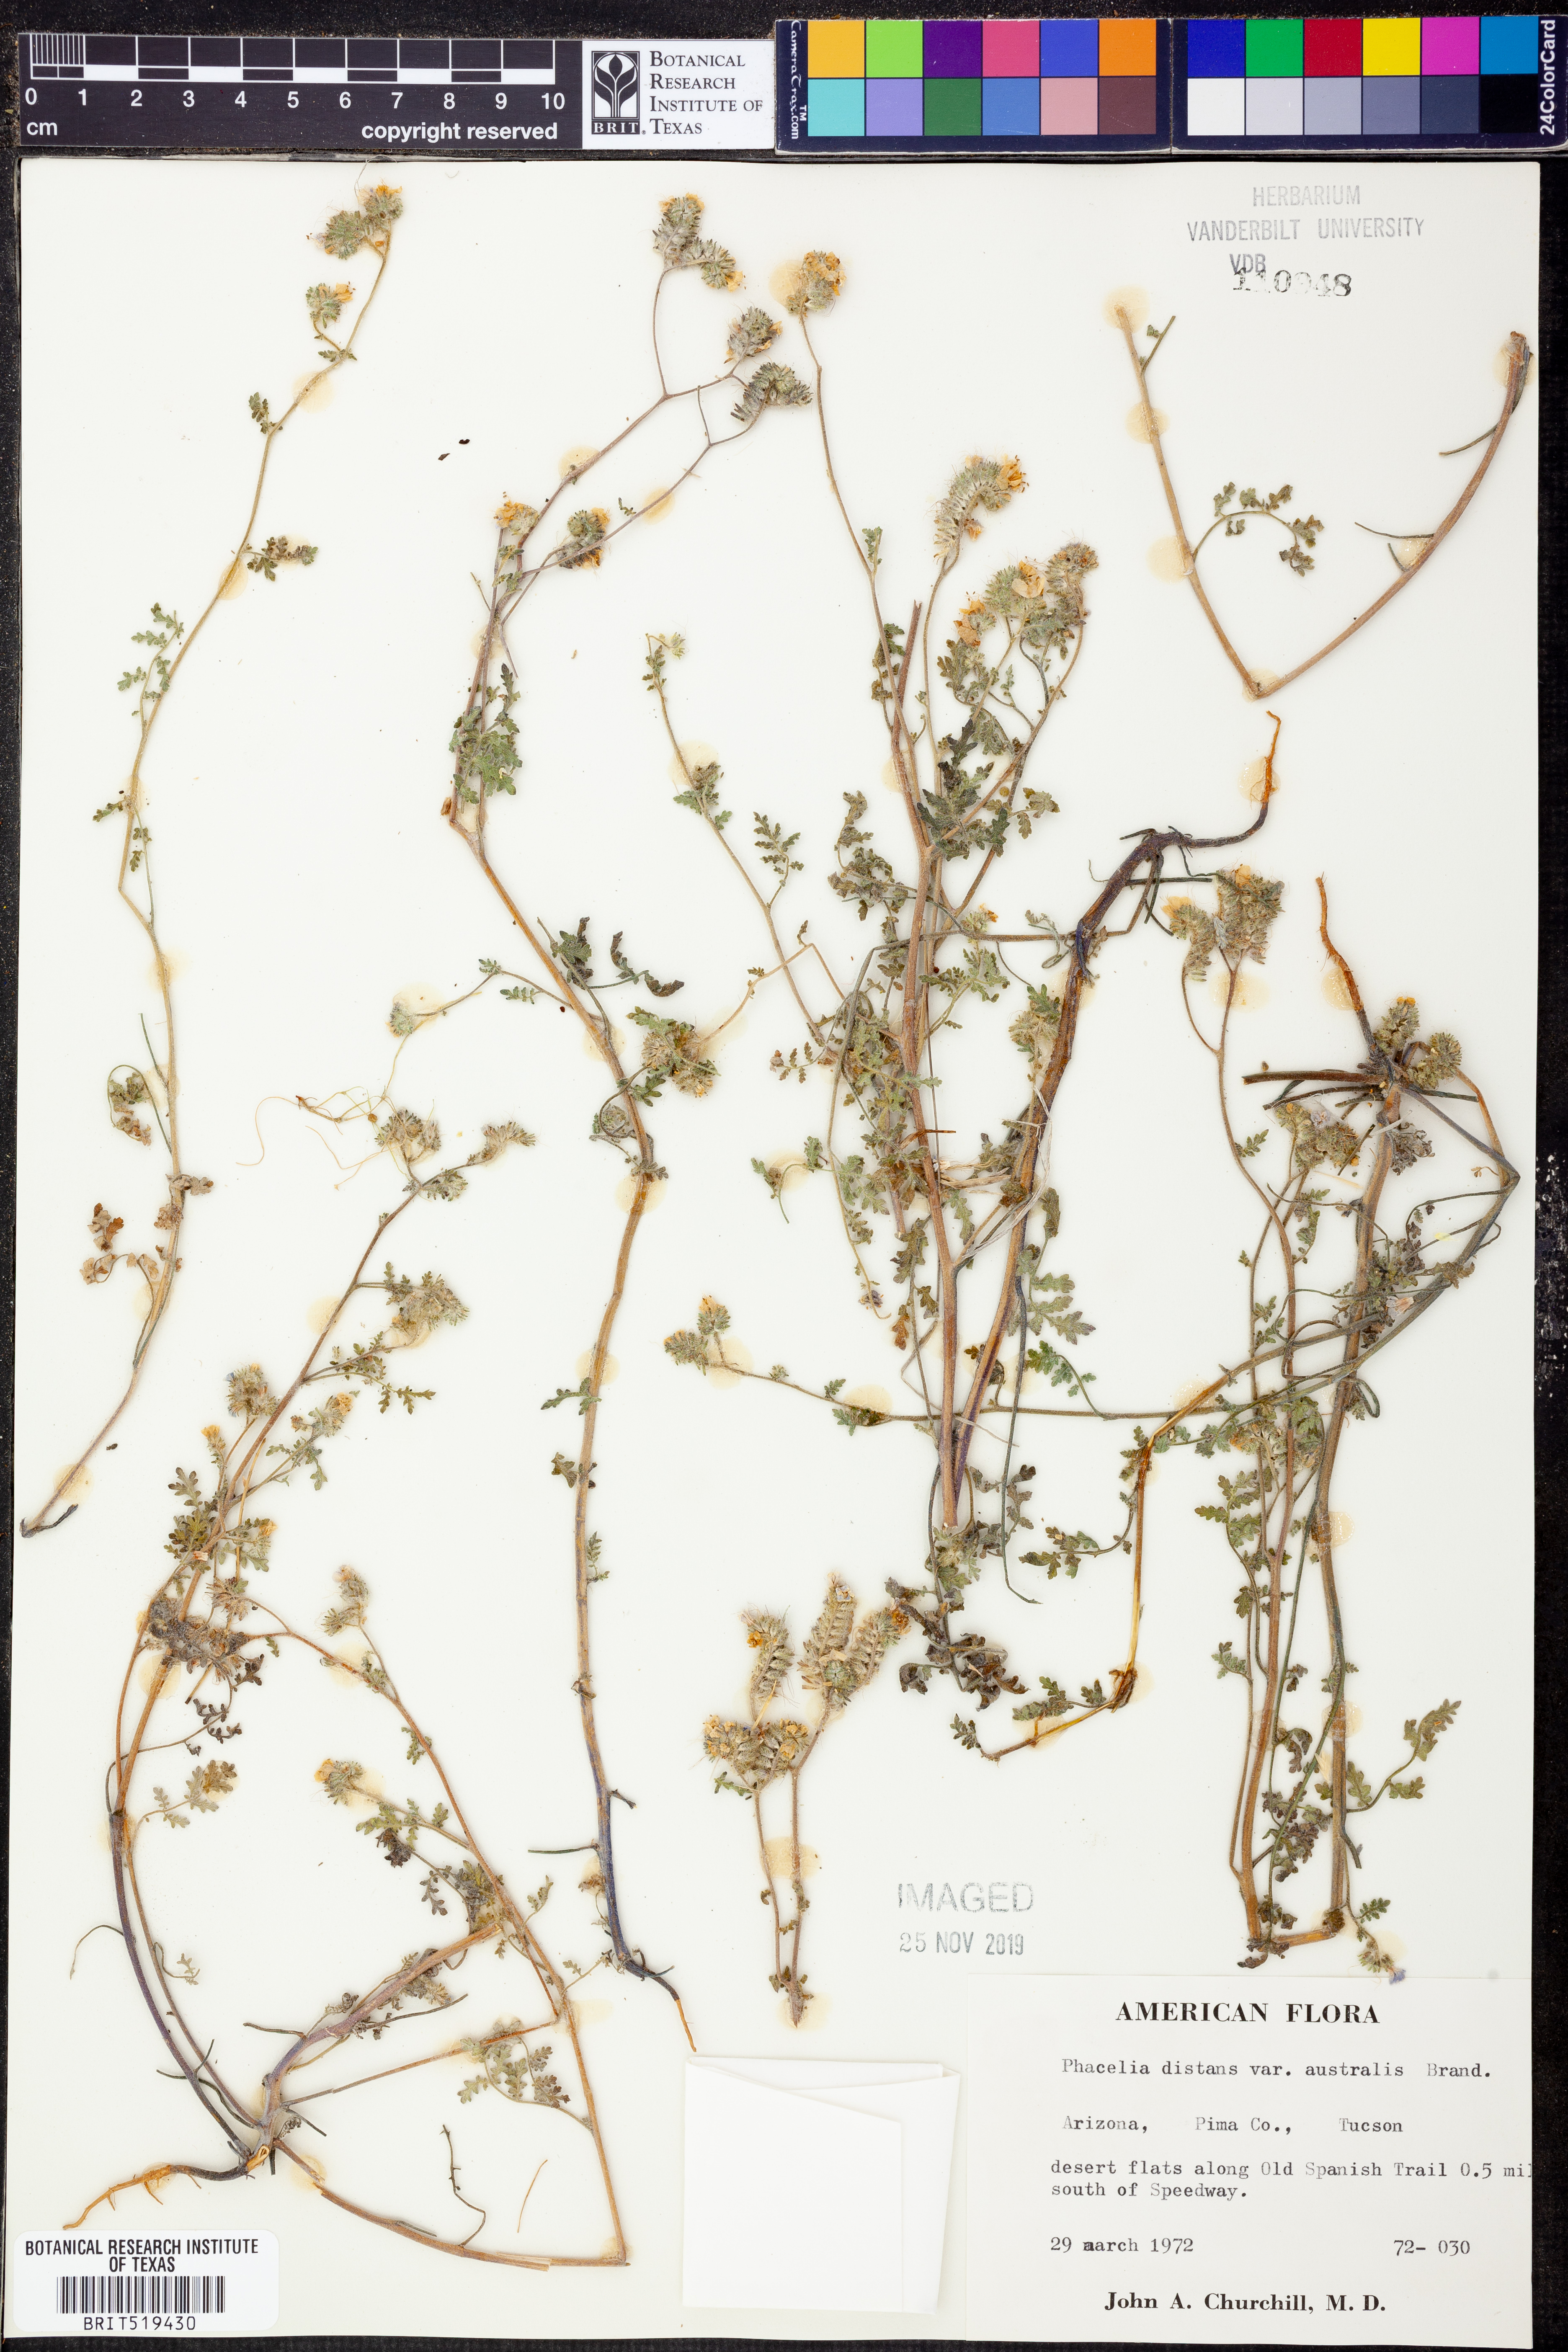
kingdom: Plantae
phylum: Tracheophyta
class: Magnoliopsida
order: Boraginales
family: Hydrophyllaceae
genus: Phacelia
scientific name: Phacelia distans
